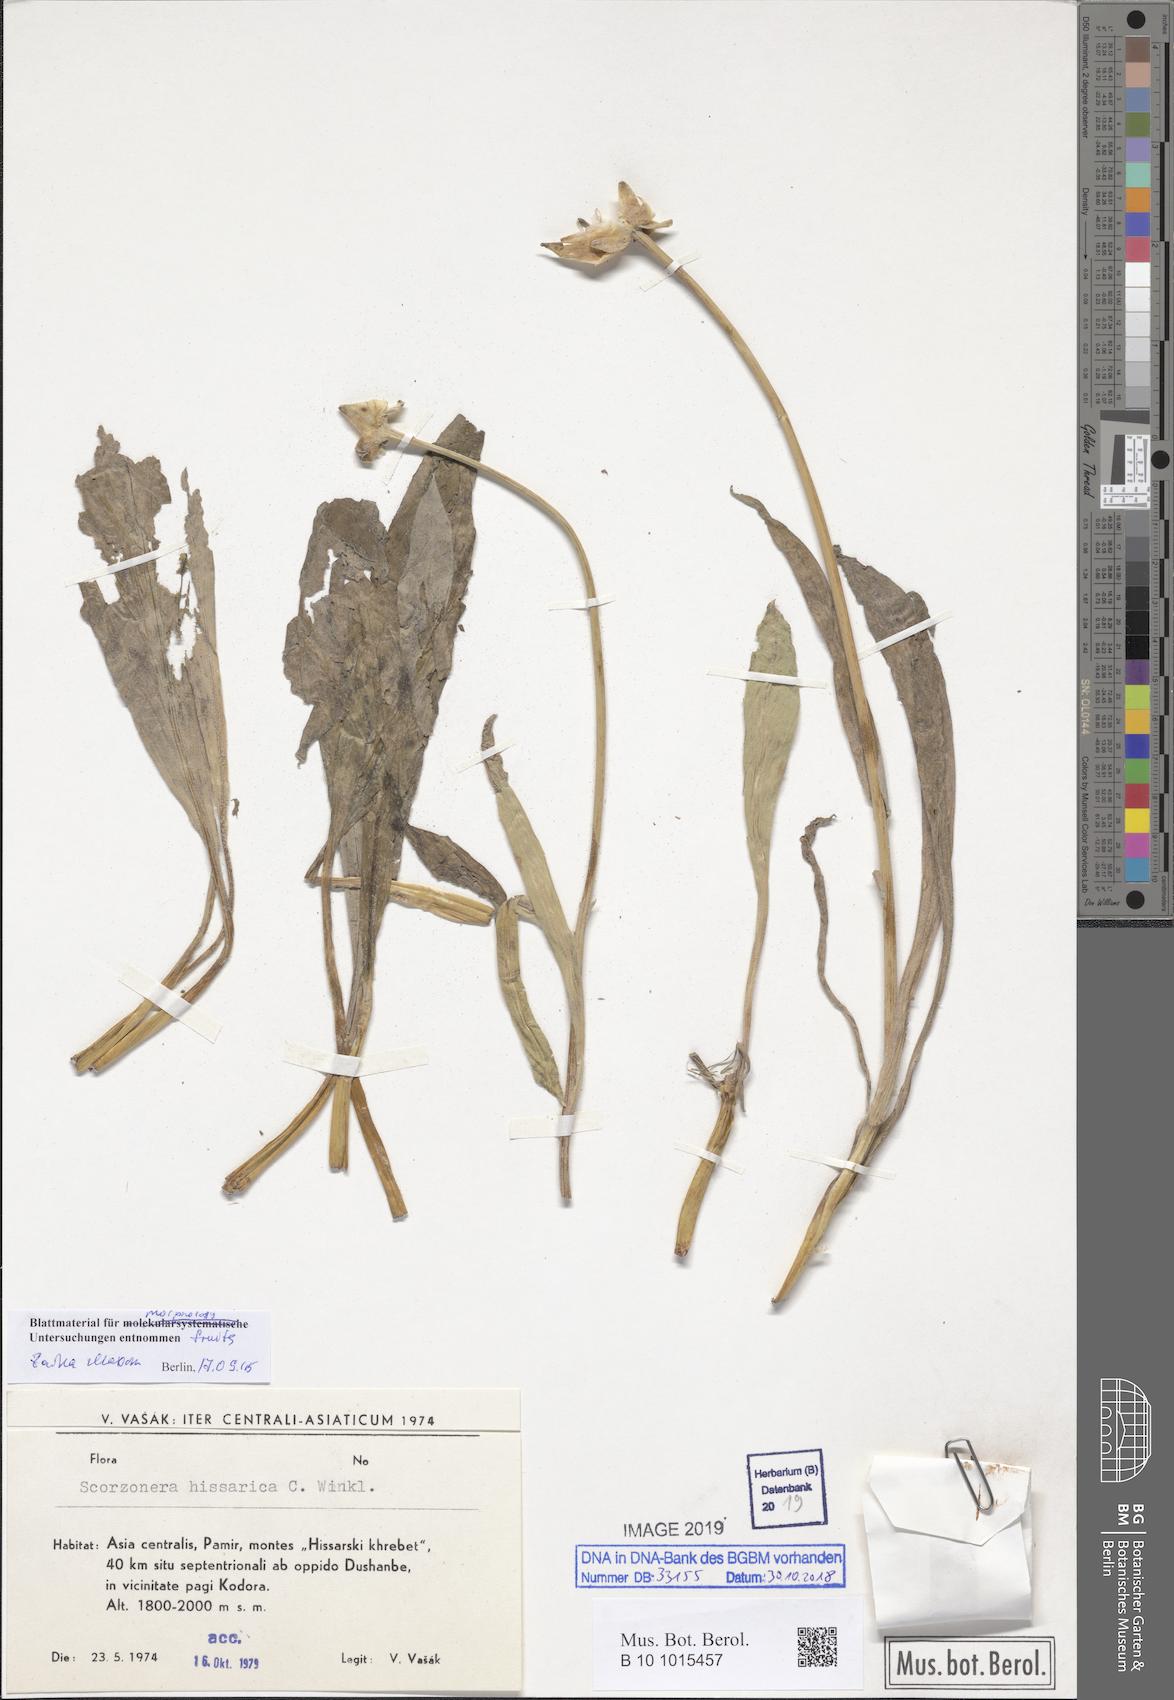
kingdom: Plantae
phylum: Tracheophyta
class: Magnoliopsida
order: Asterales
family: Asteraceae
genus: Pseudopodospermum
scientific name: Pseudopodospermum hissaricum
